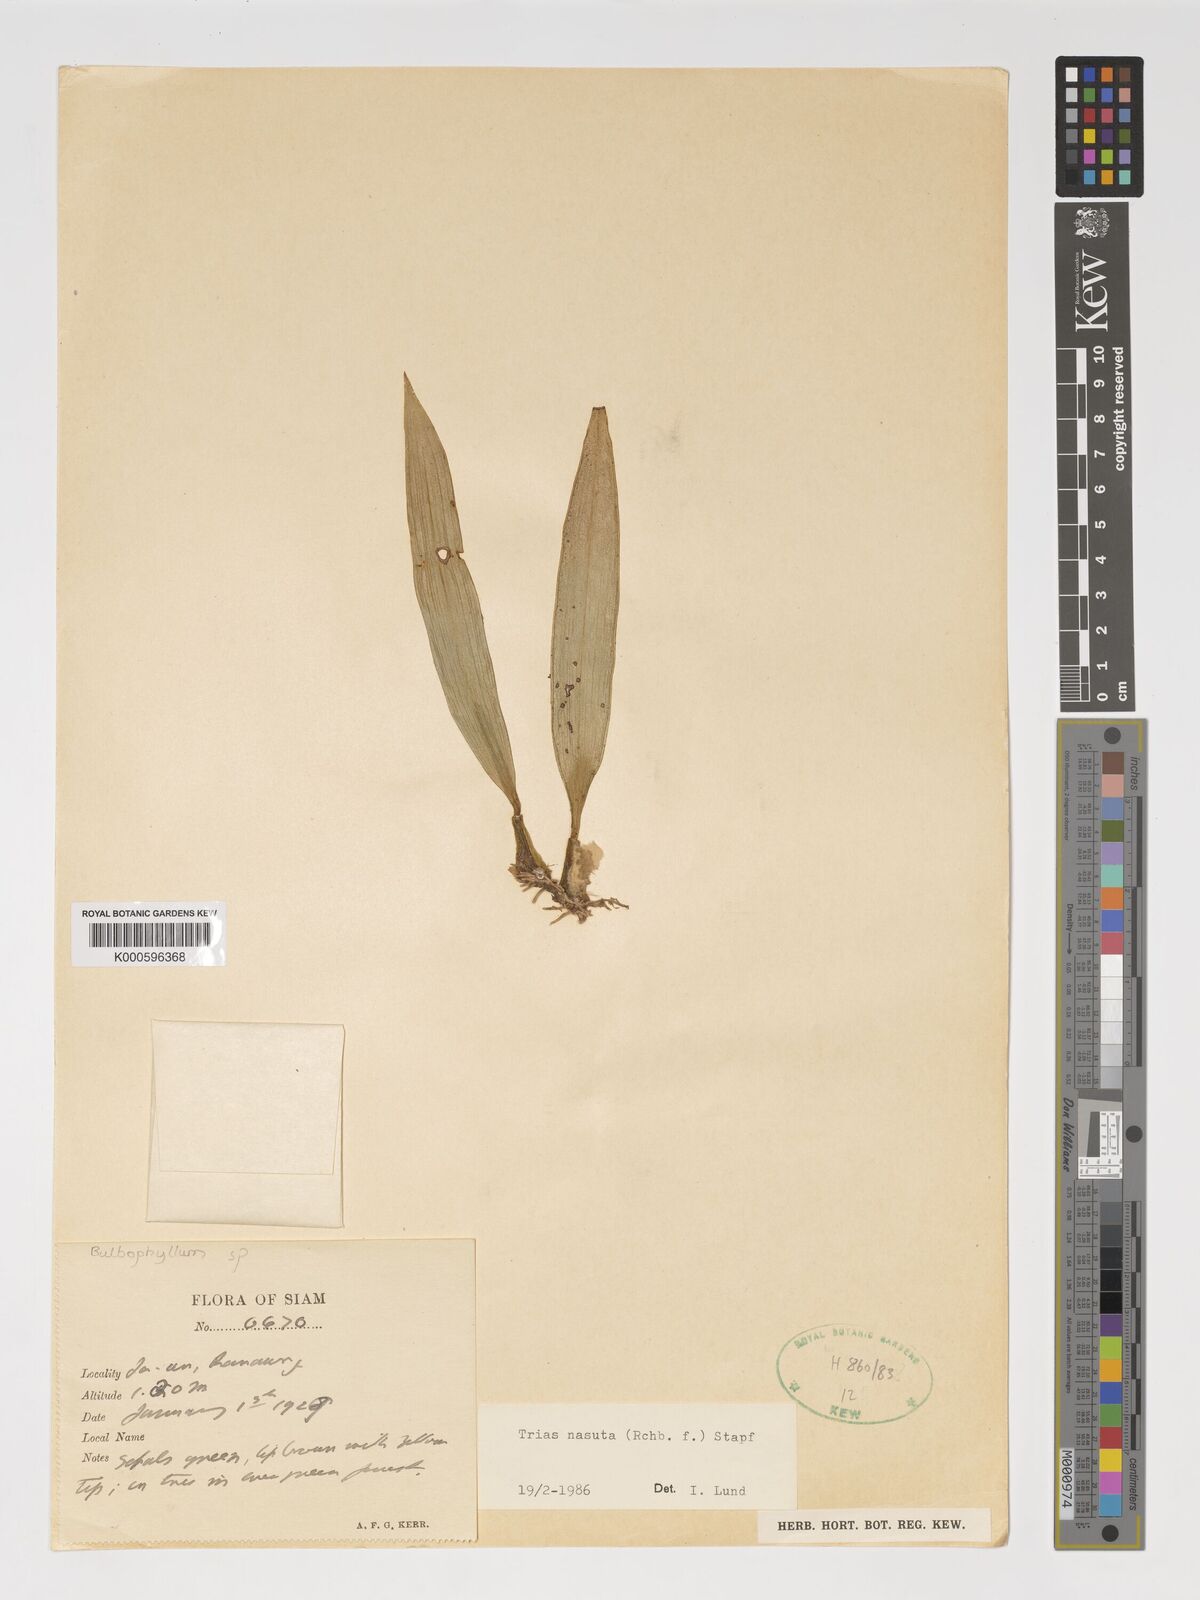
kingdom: Plantae
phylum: Tracheophyta
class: Liliopsida
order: Asparagales
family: Orchidaceae
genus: Coelogyne
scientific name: Coelogyne
